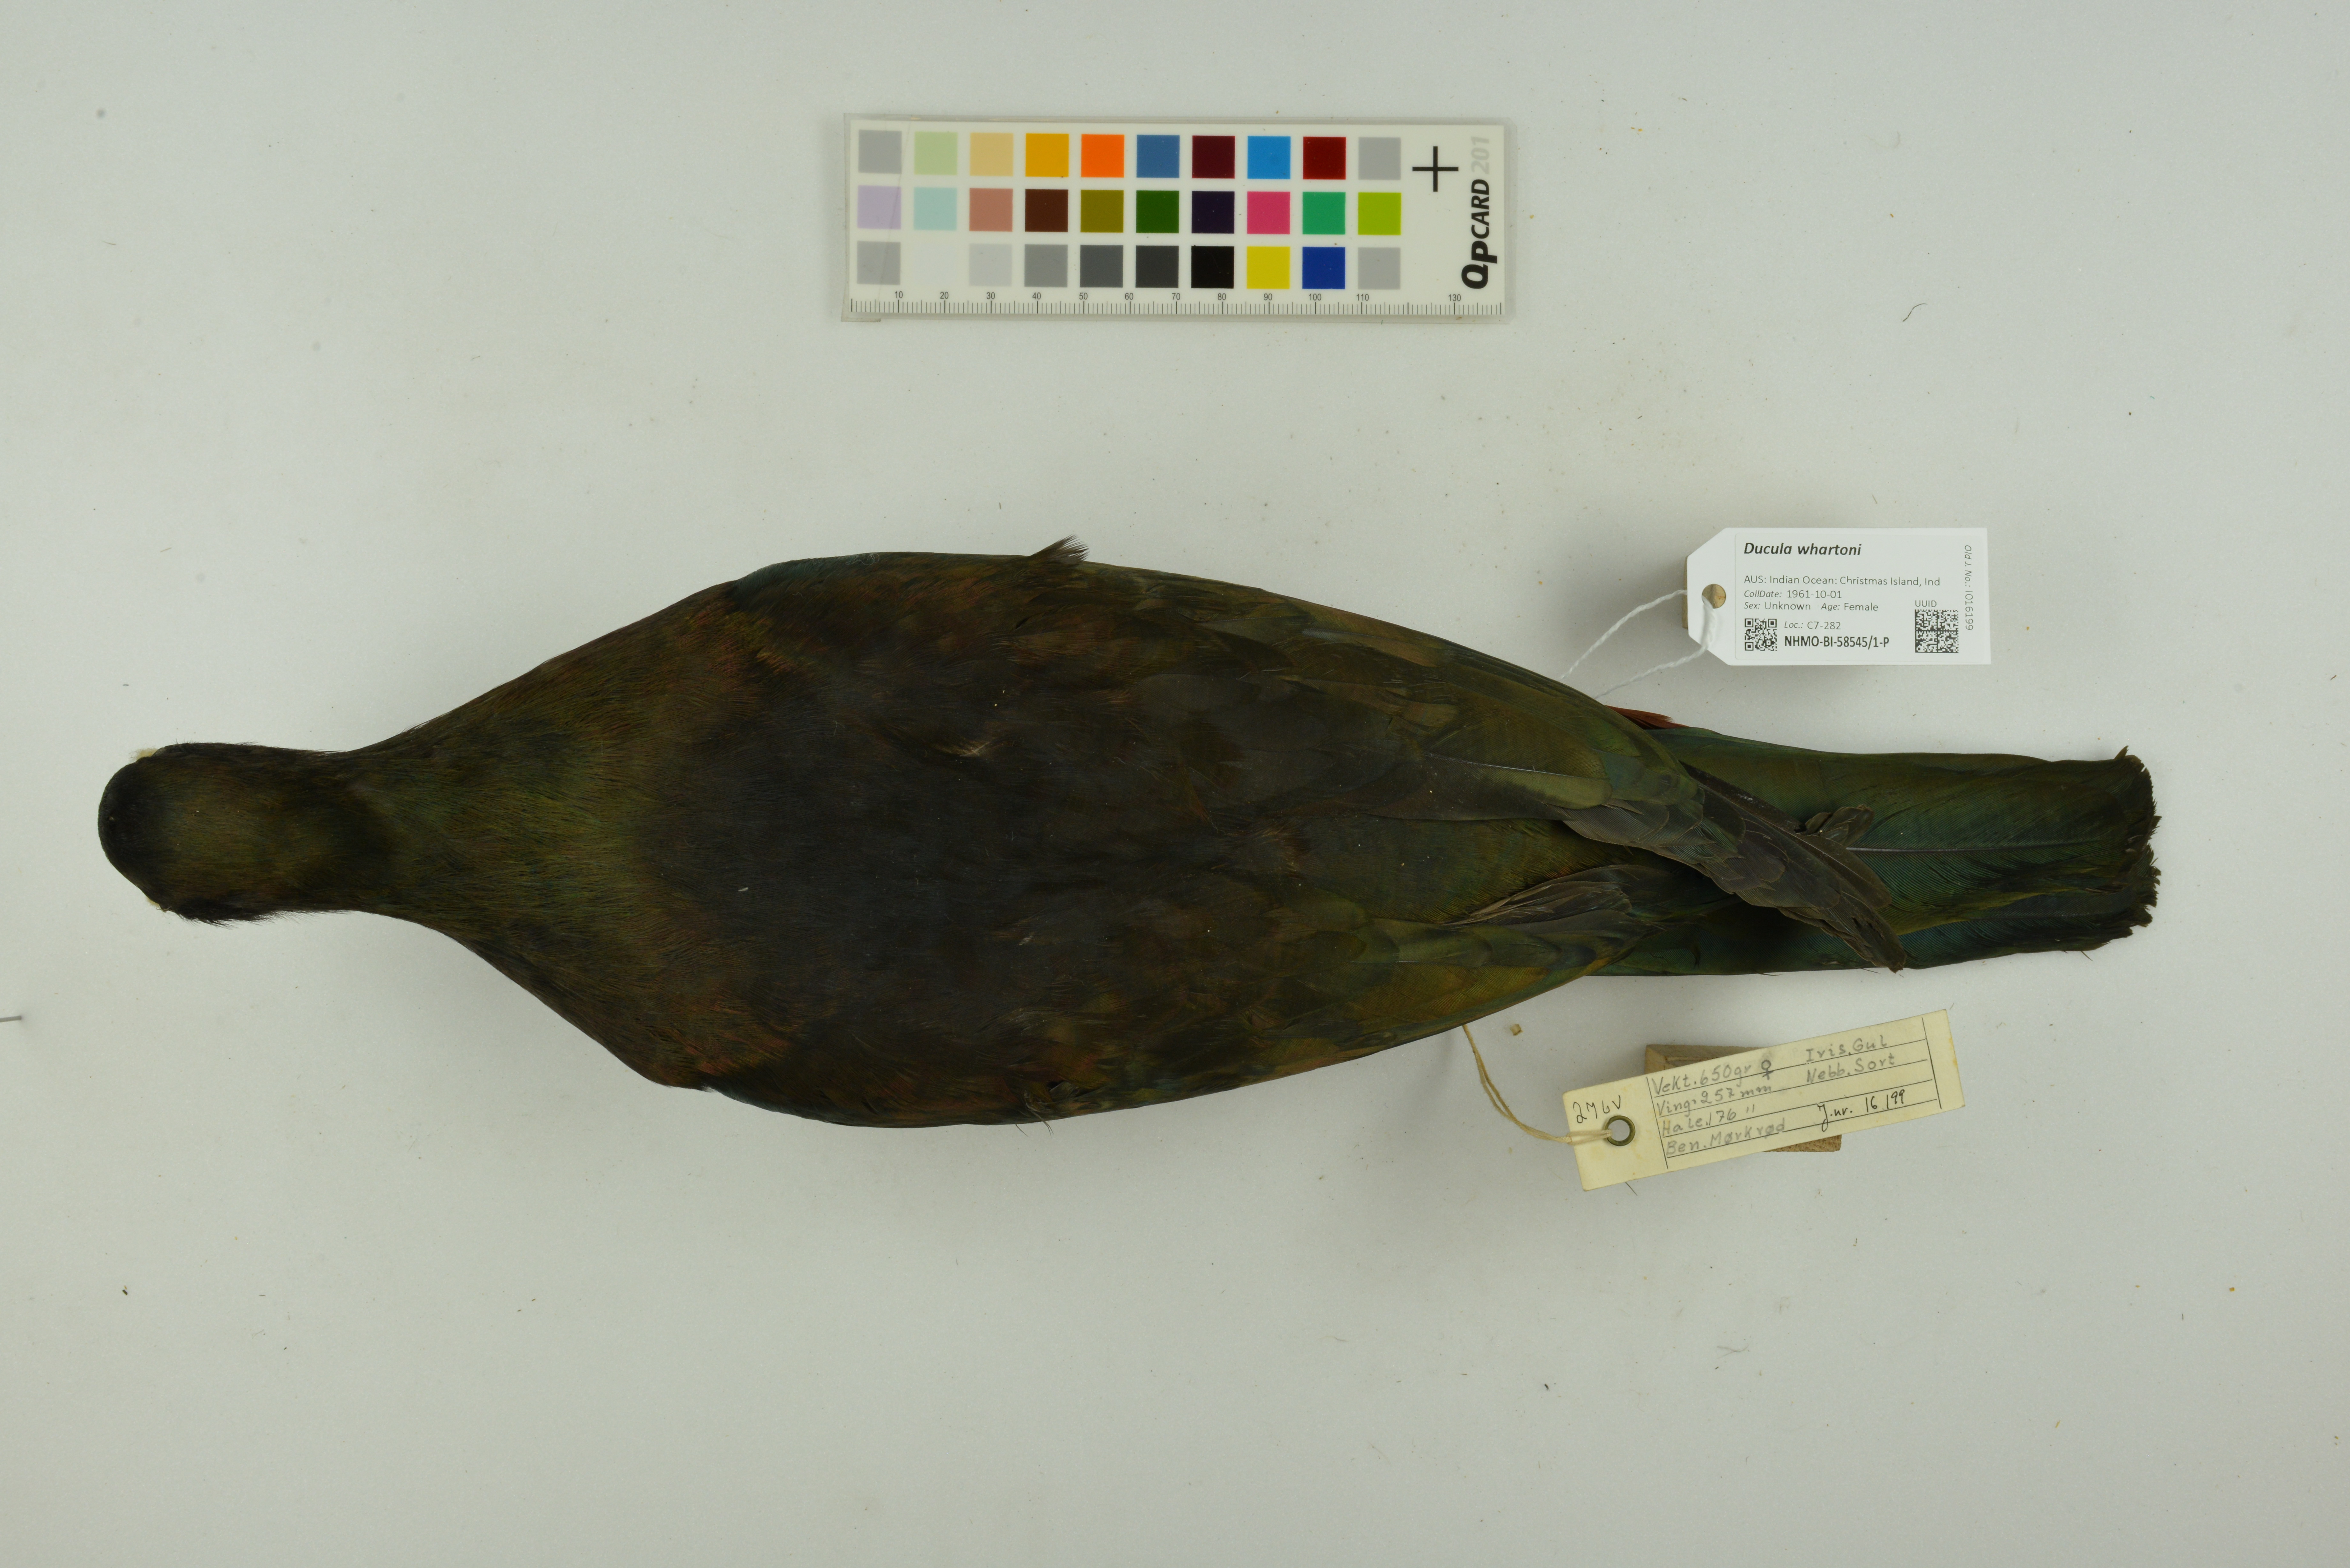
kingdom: Animalia
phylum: Chordata
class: Aves
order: Columbiformes
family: Columbidae
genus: Ducula
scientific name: Ducula whartoni
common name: Christmas imperial pigeon
